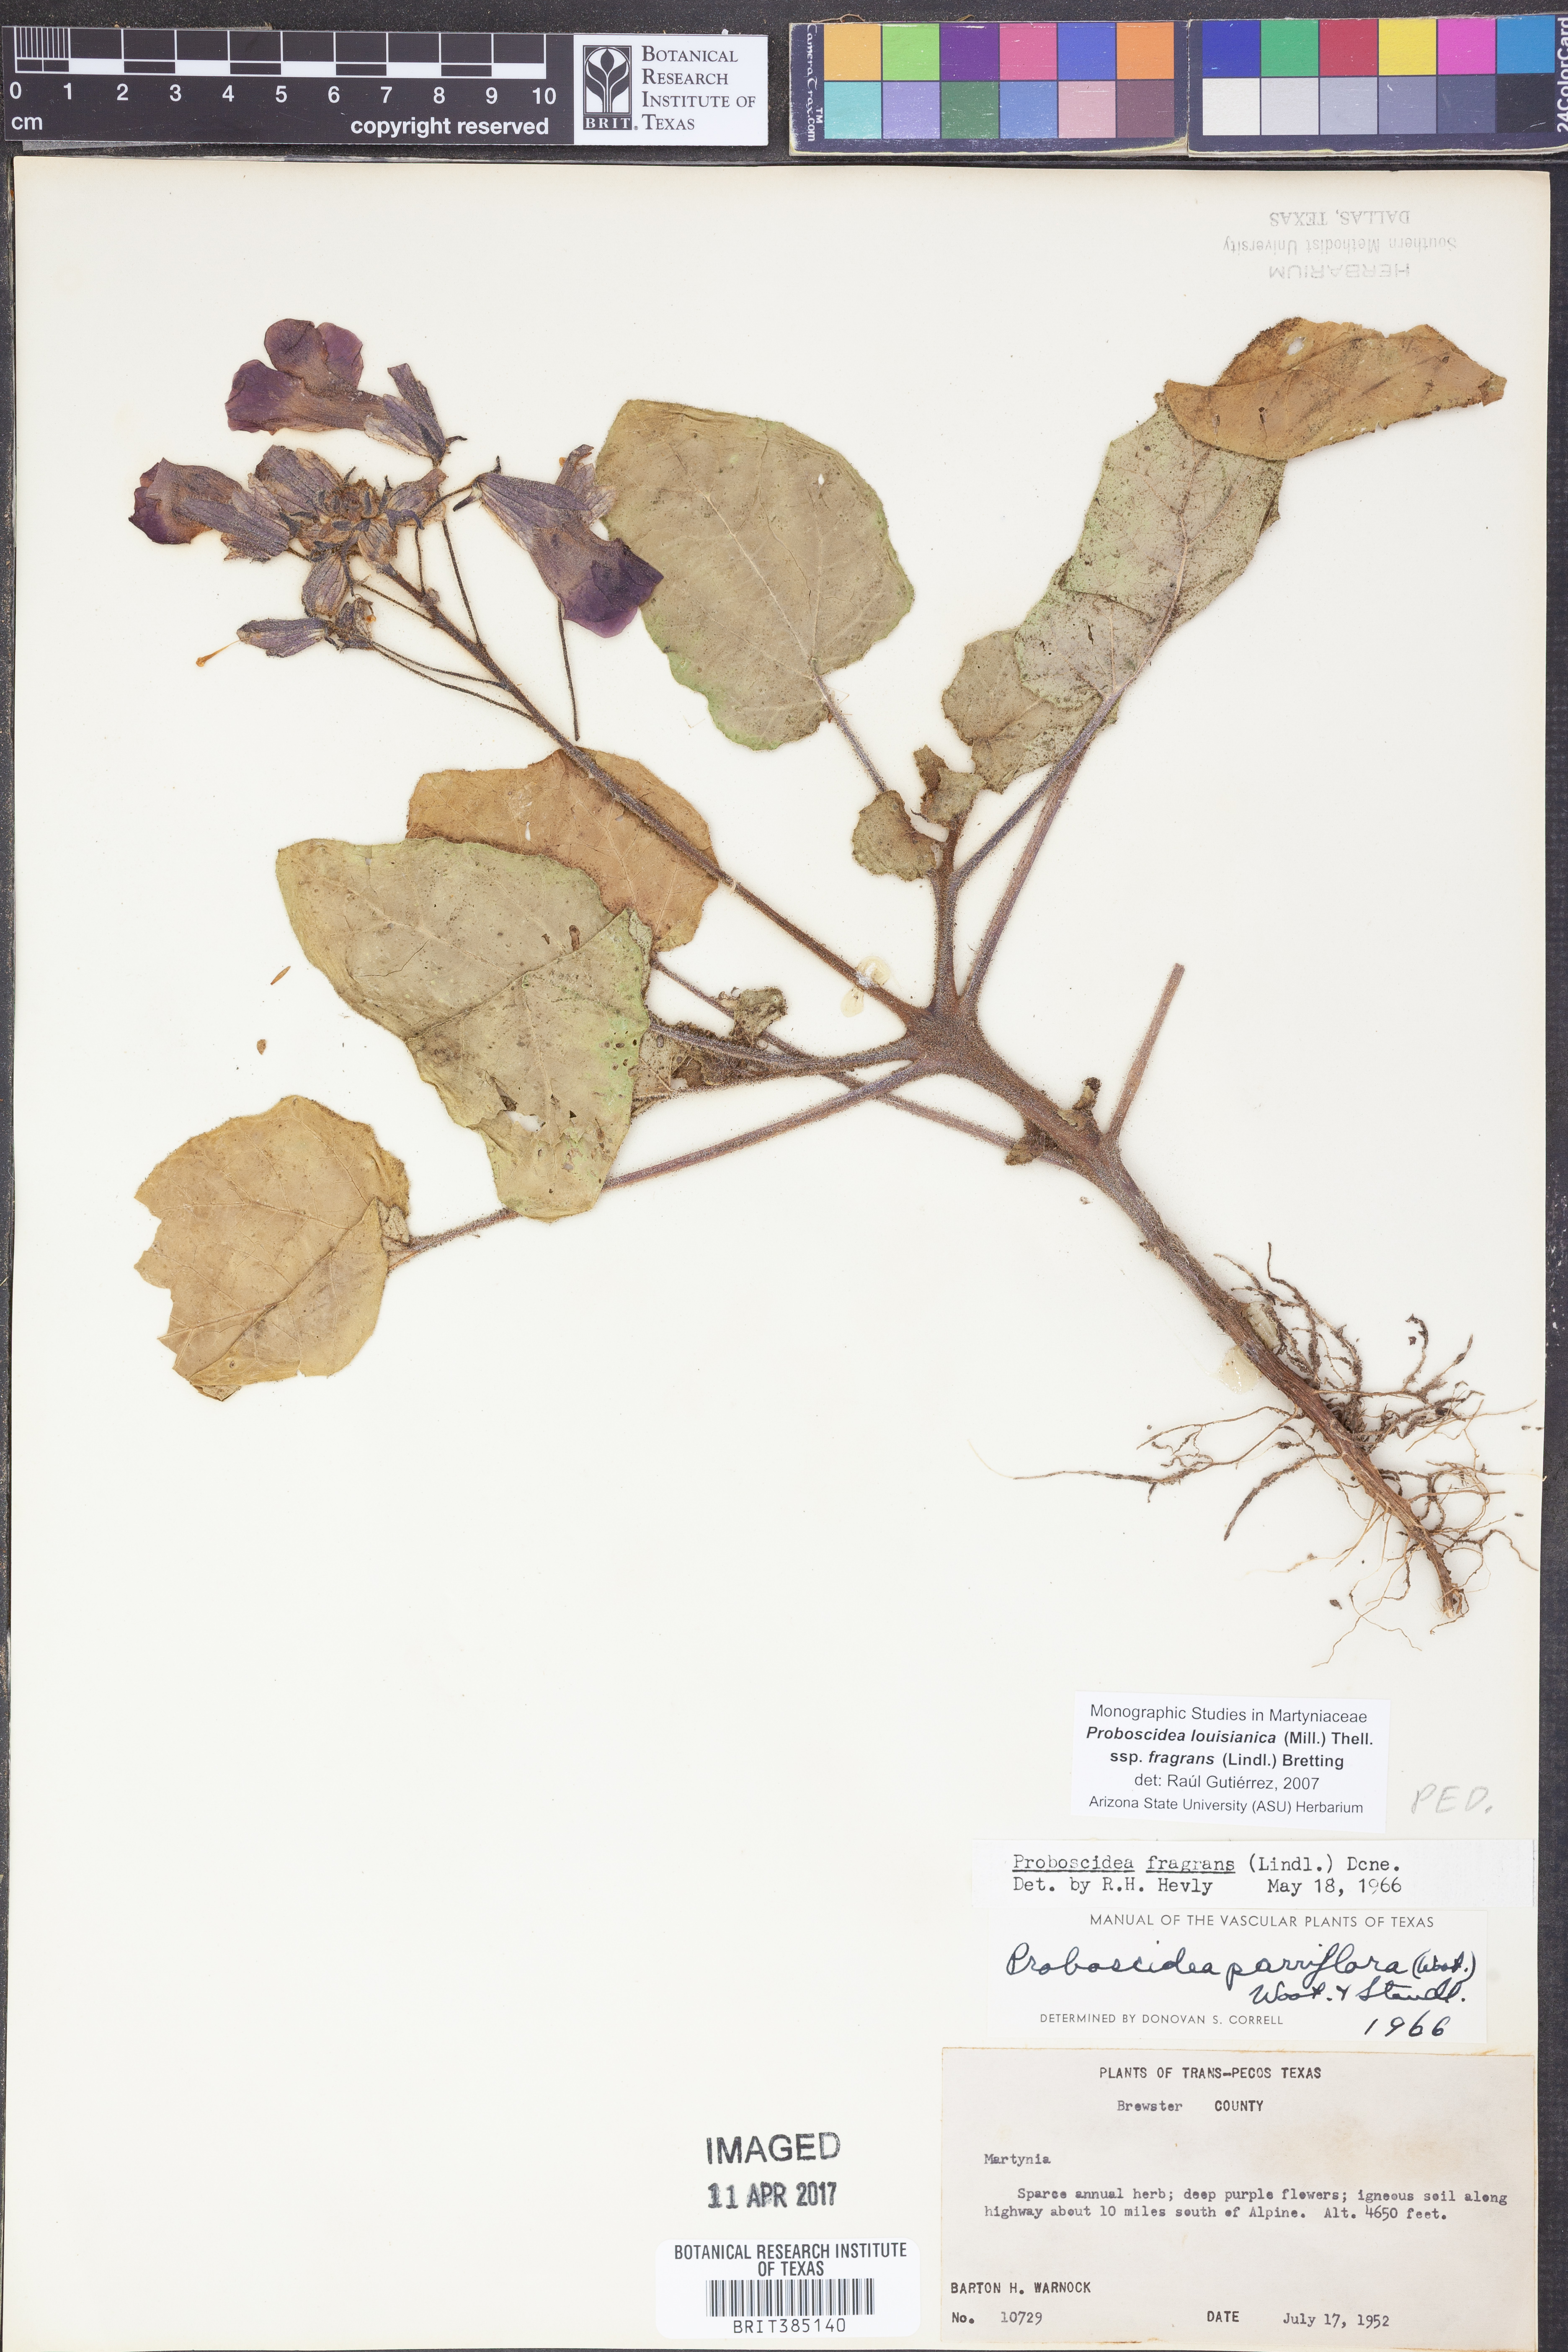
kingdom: Plantae
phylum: Tracheophyta
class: Magnoliopsida
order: Lamiales
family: Martyniaceae
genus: Proboscidea
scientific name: Proboscidea louisianica
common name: Elephant tusks
